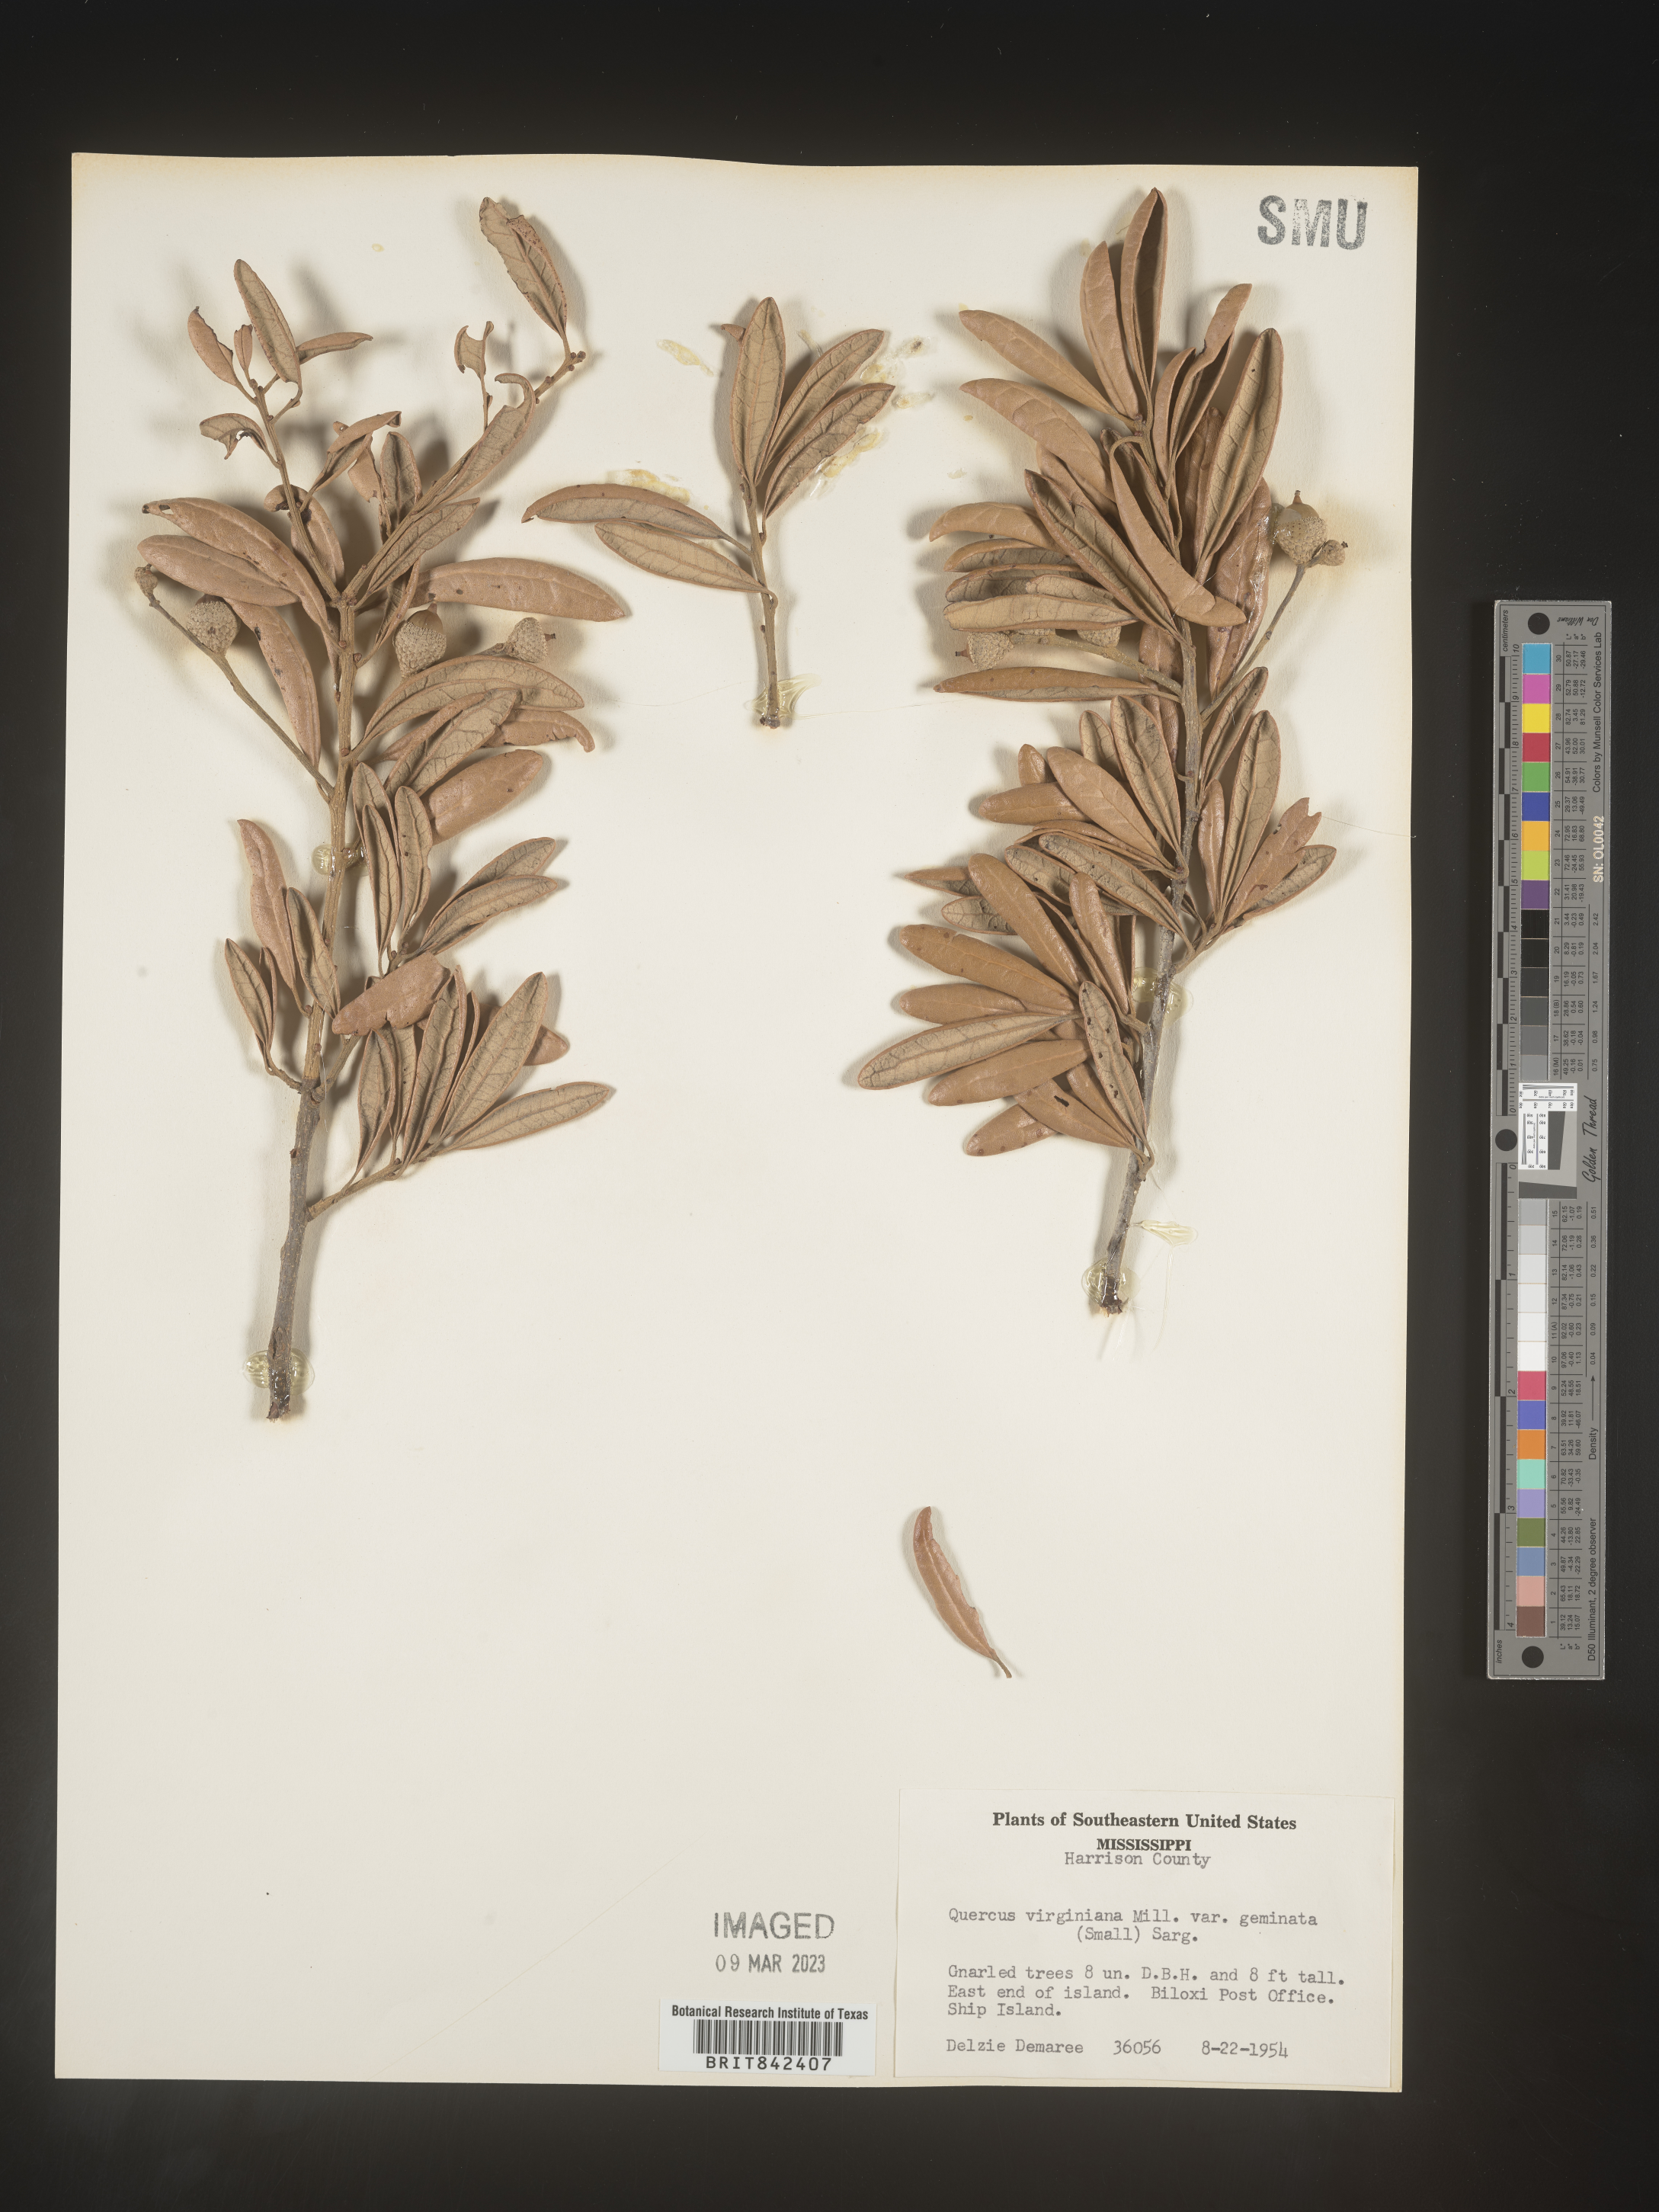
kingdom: Plantae
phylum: Tracheophyta
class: Magnoliopsida
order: Fagales
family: Fagaceae
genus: Quercus
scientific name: Quercus virginiana
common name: Southern live oak
